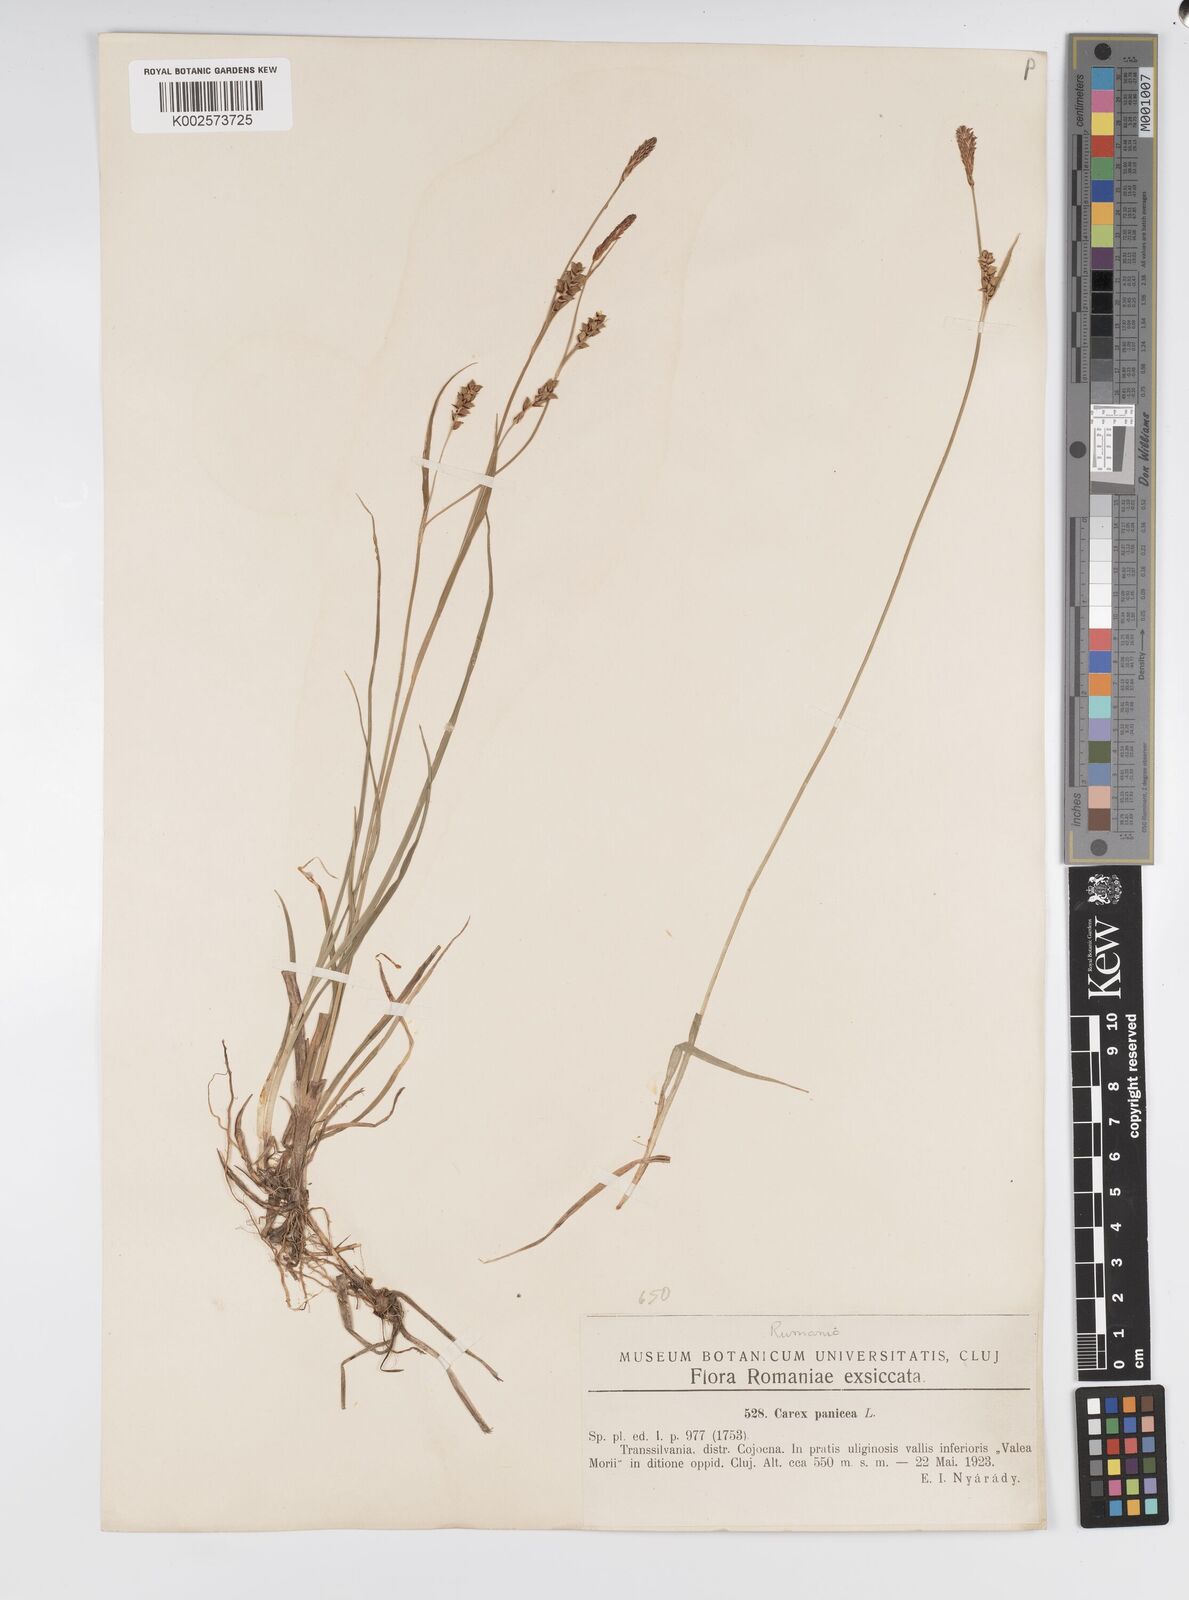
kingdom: Plantae
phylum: Tracheophyta
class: Liliopsida
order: Poales
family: Cyperaceae
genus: Carex
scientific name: Carex panicea
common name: Carnation sedge
